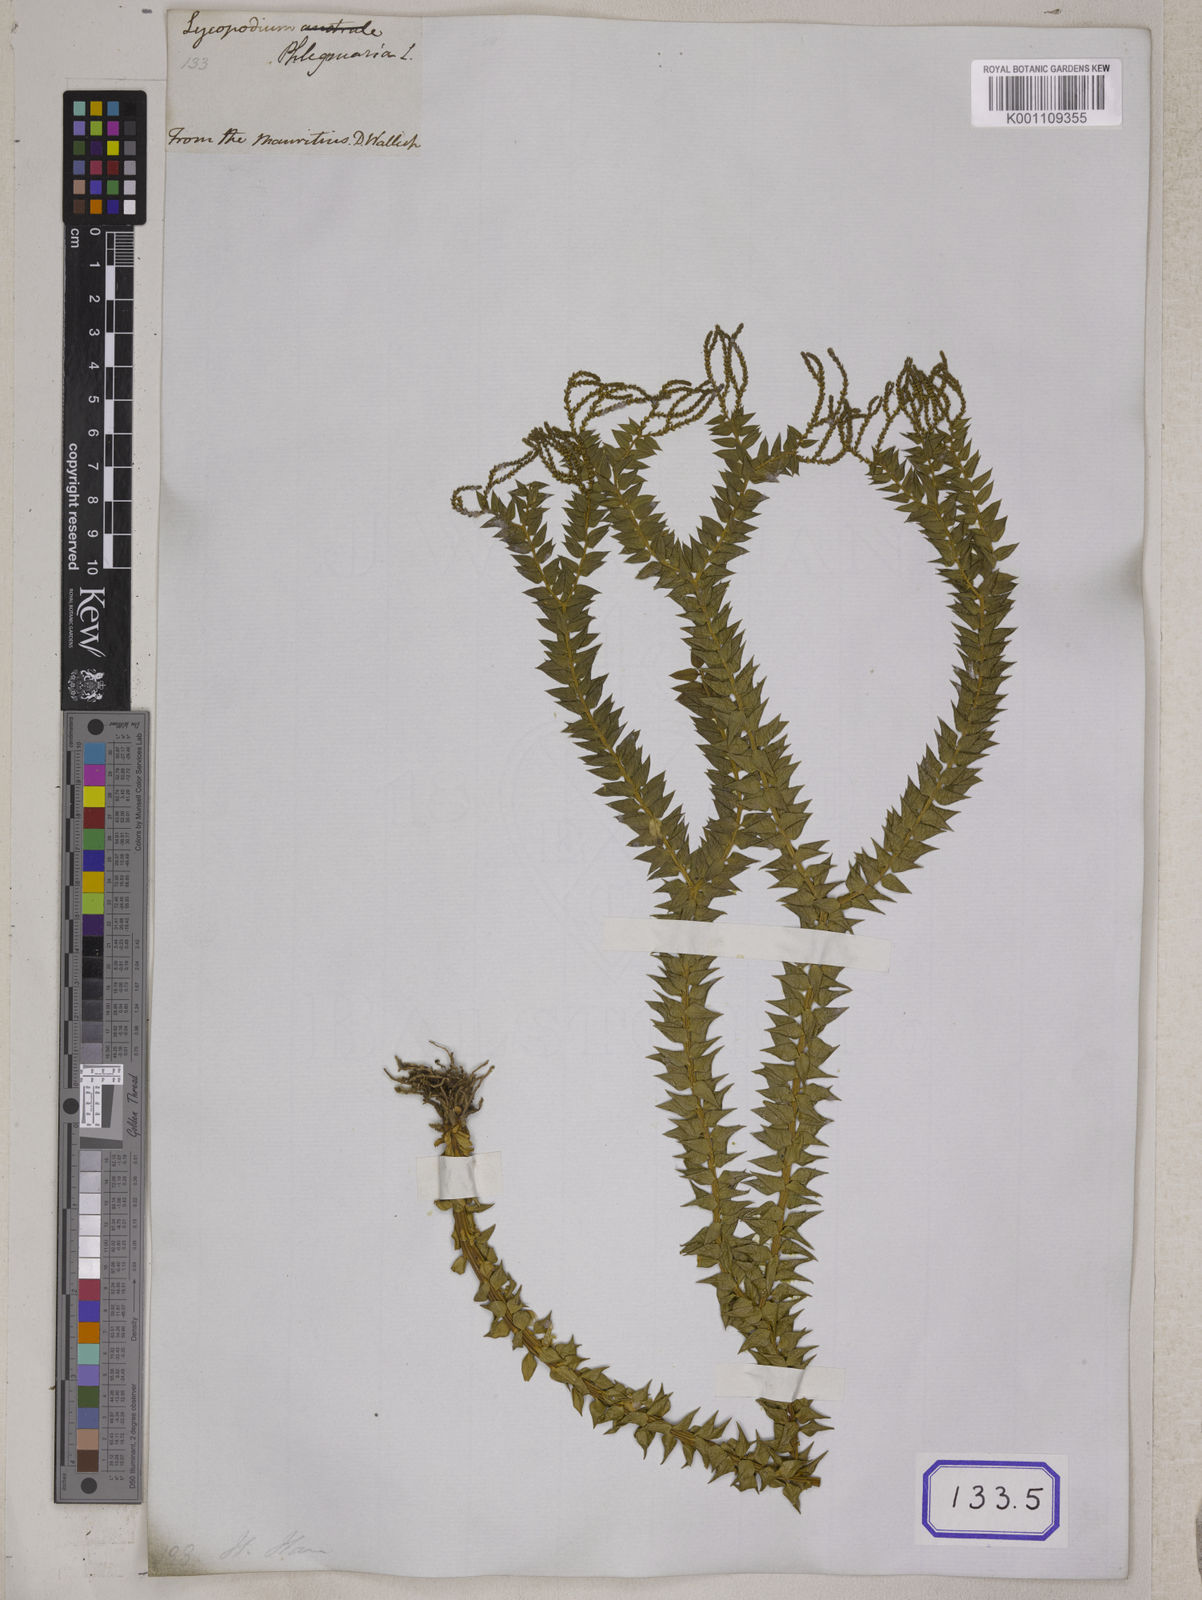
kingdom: Plantae
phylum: Tracheophyta
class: Lycopodiopsida
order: Lycopodiales
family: Lycopodiaceae
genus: Phlegmariurus
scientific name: Phlegmariurus phlegmaria
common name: Coarse tassel-fern
